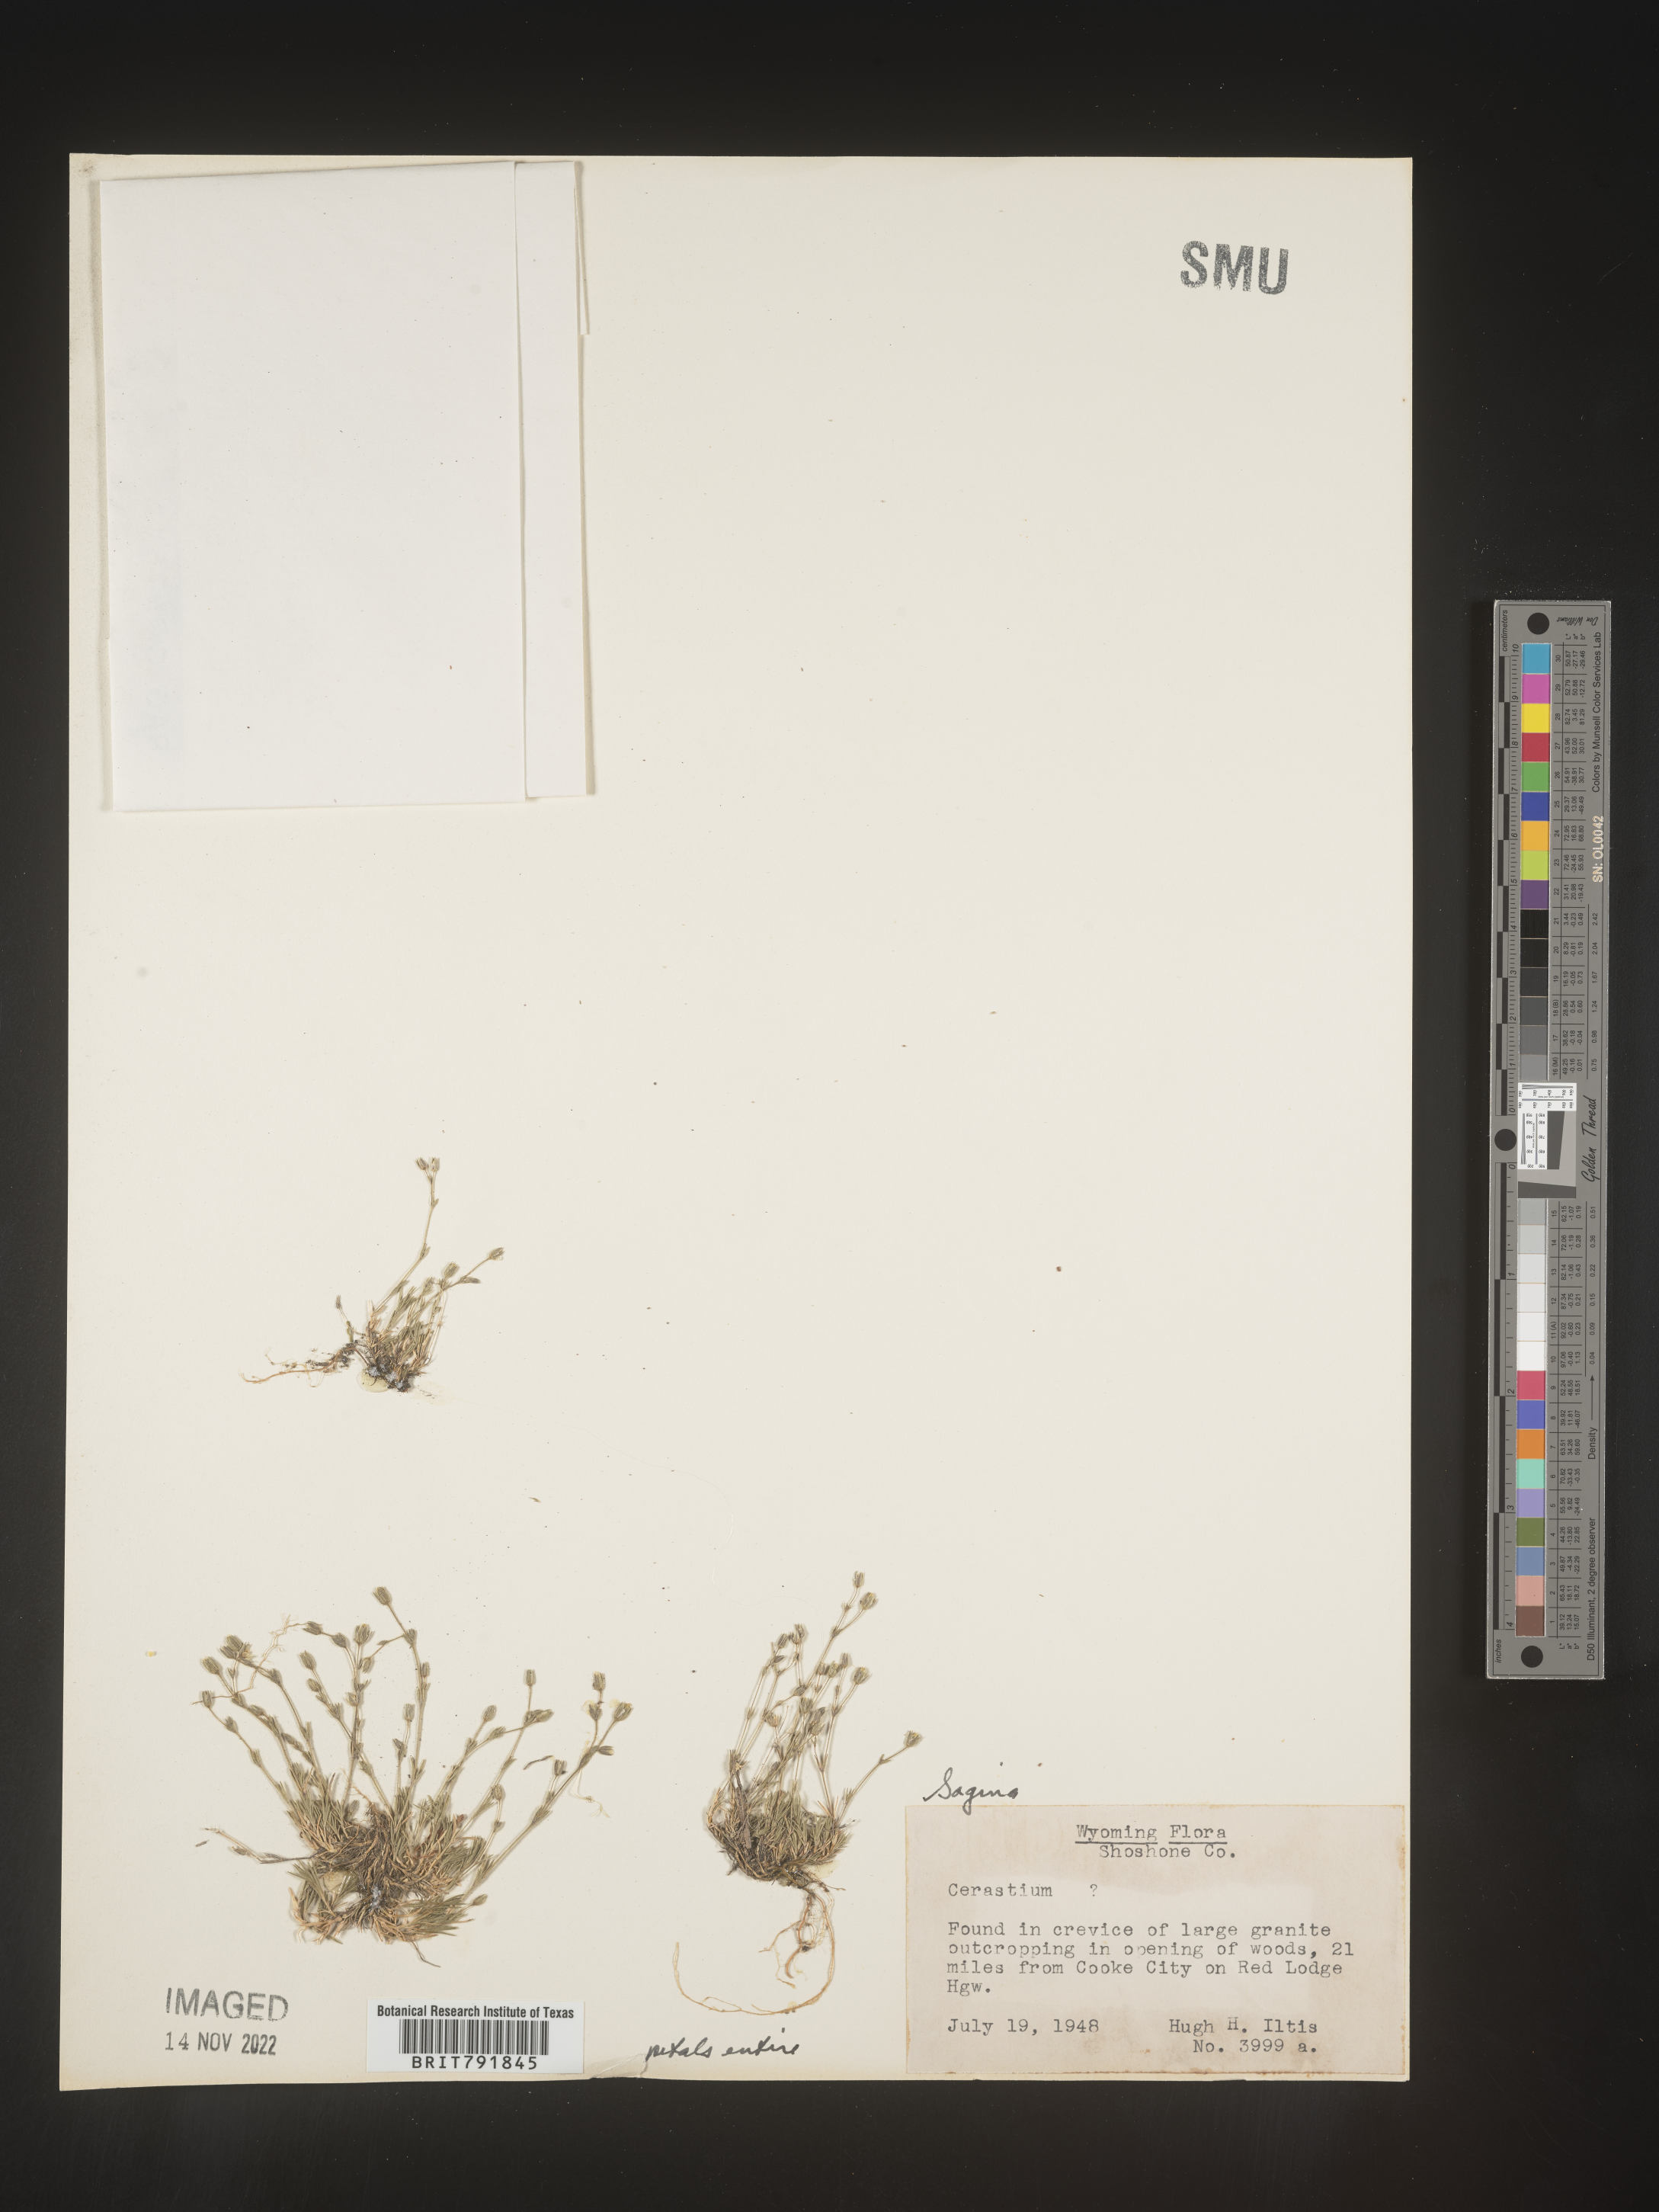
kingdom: Plantae
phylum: Tracheophyta
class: Magnoliopsida
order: Caryophyllales
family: Caryophyllaceae
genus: Sagina
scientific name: Sagina
